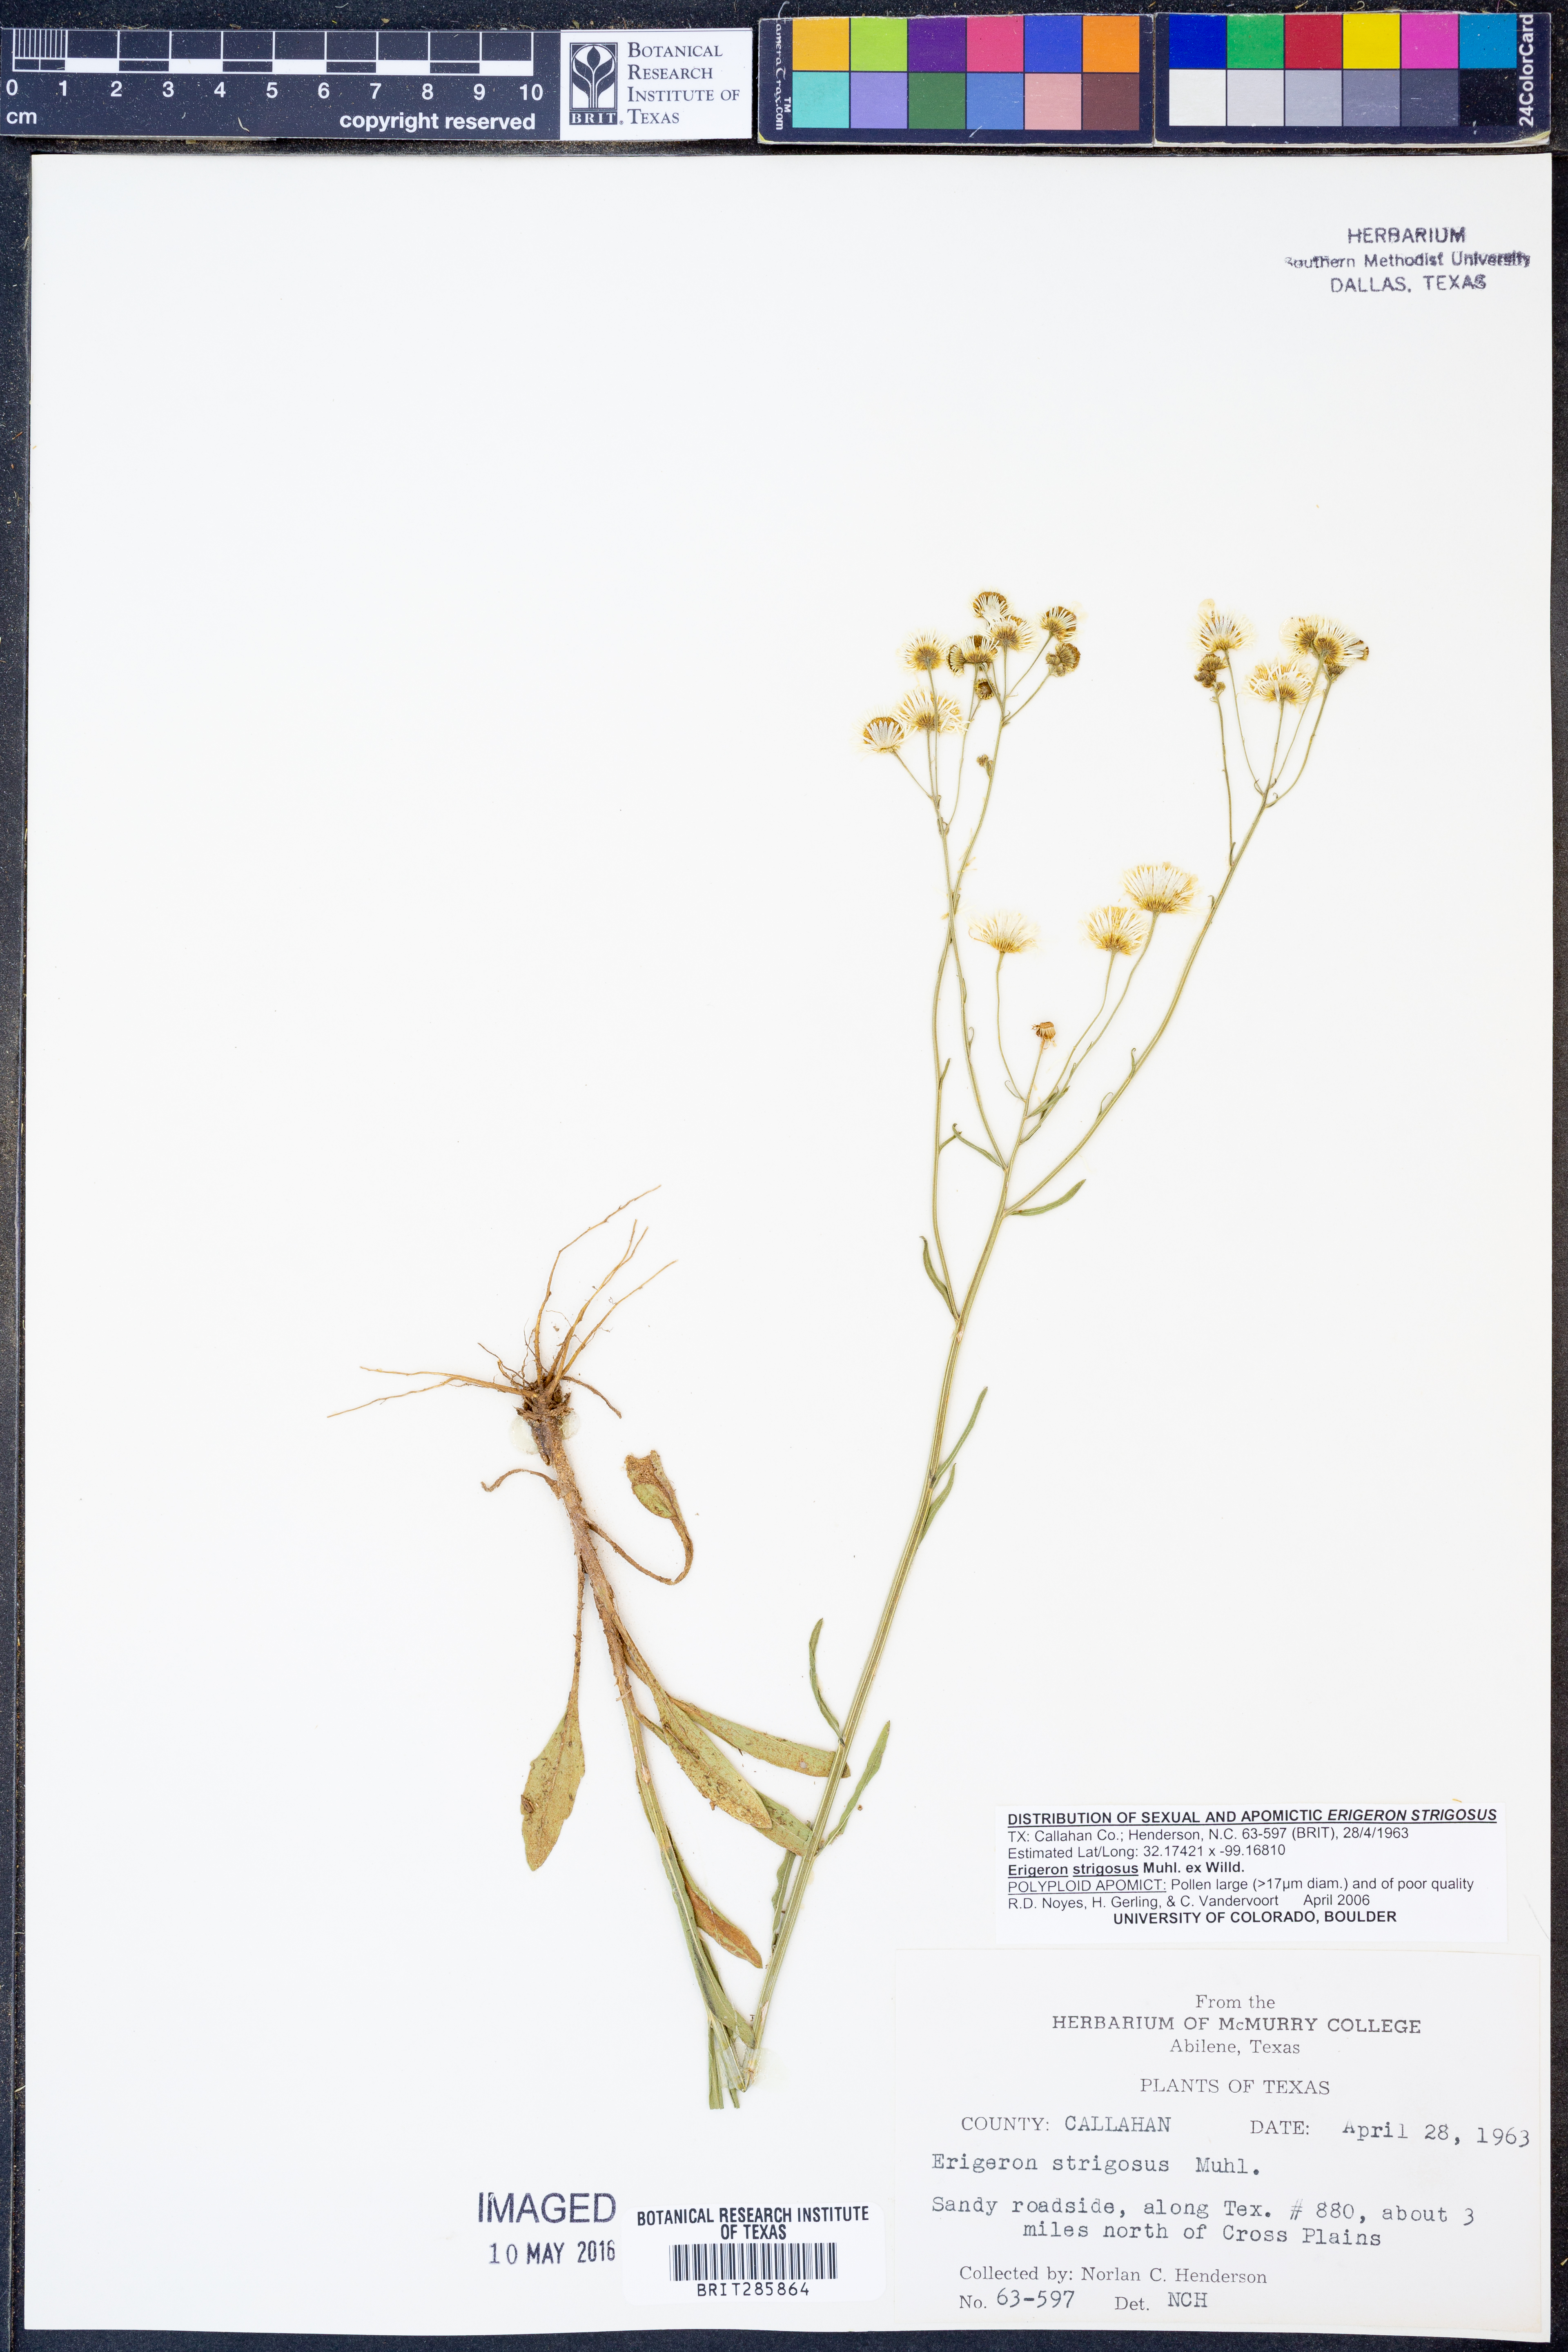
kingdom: Plantae
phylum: Tracheophyta
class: Magnoliopsida
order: Asterales
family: Asteraceae
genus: Erigeron
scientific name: Erigeron strigosus
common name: Common eastern fleabane
